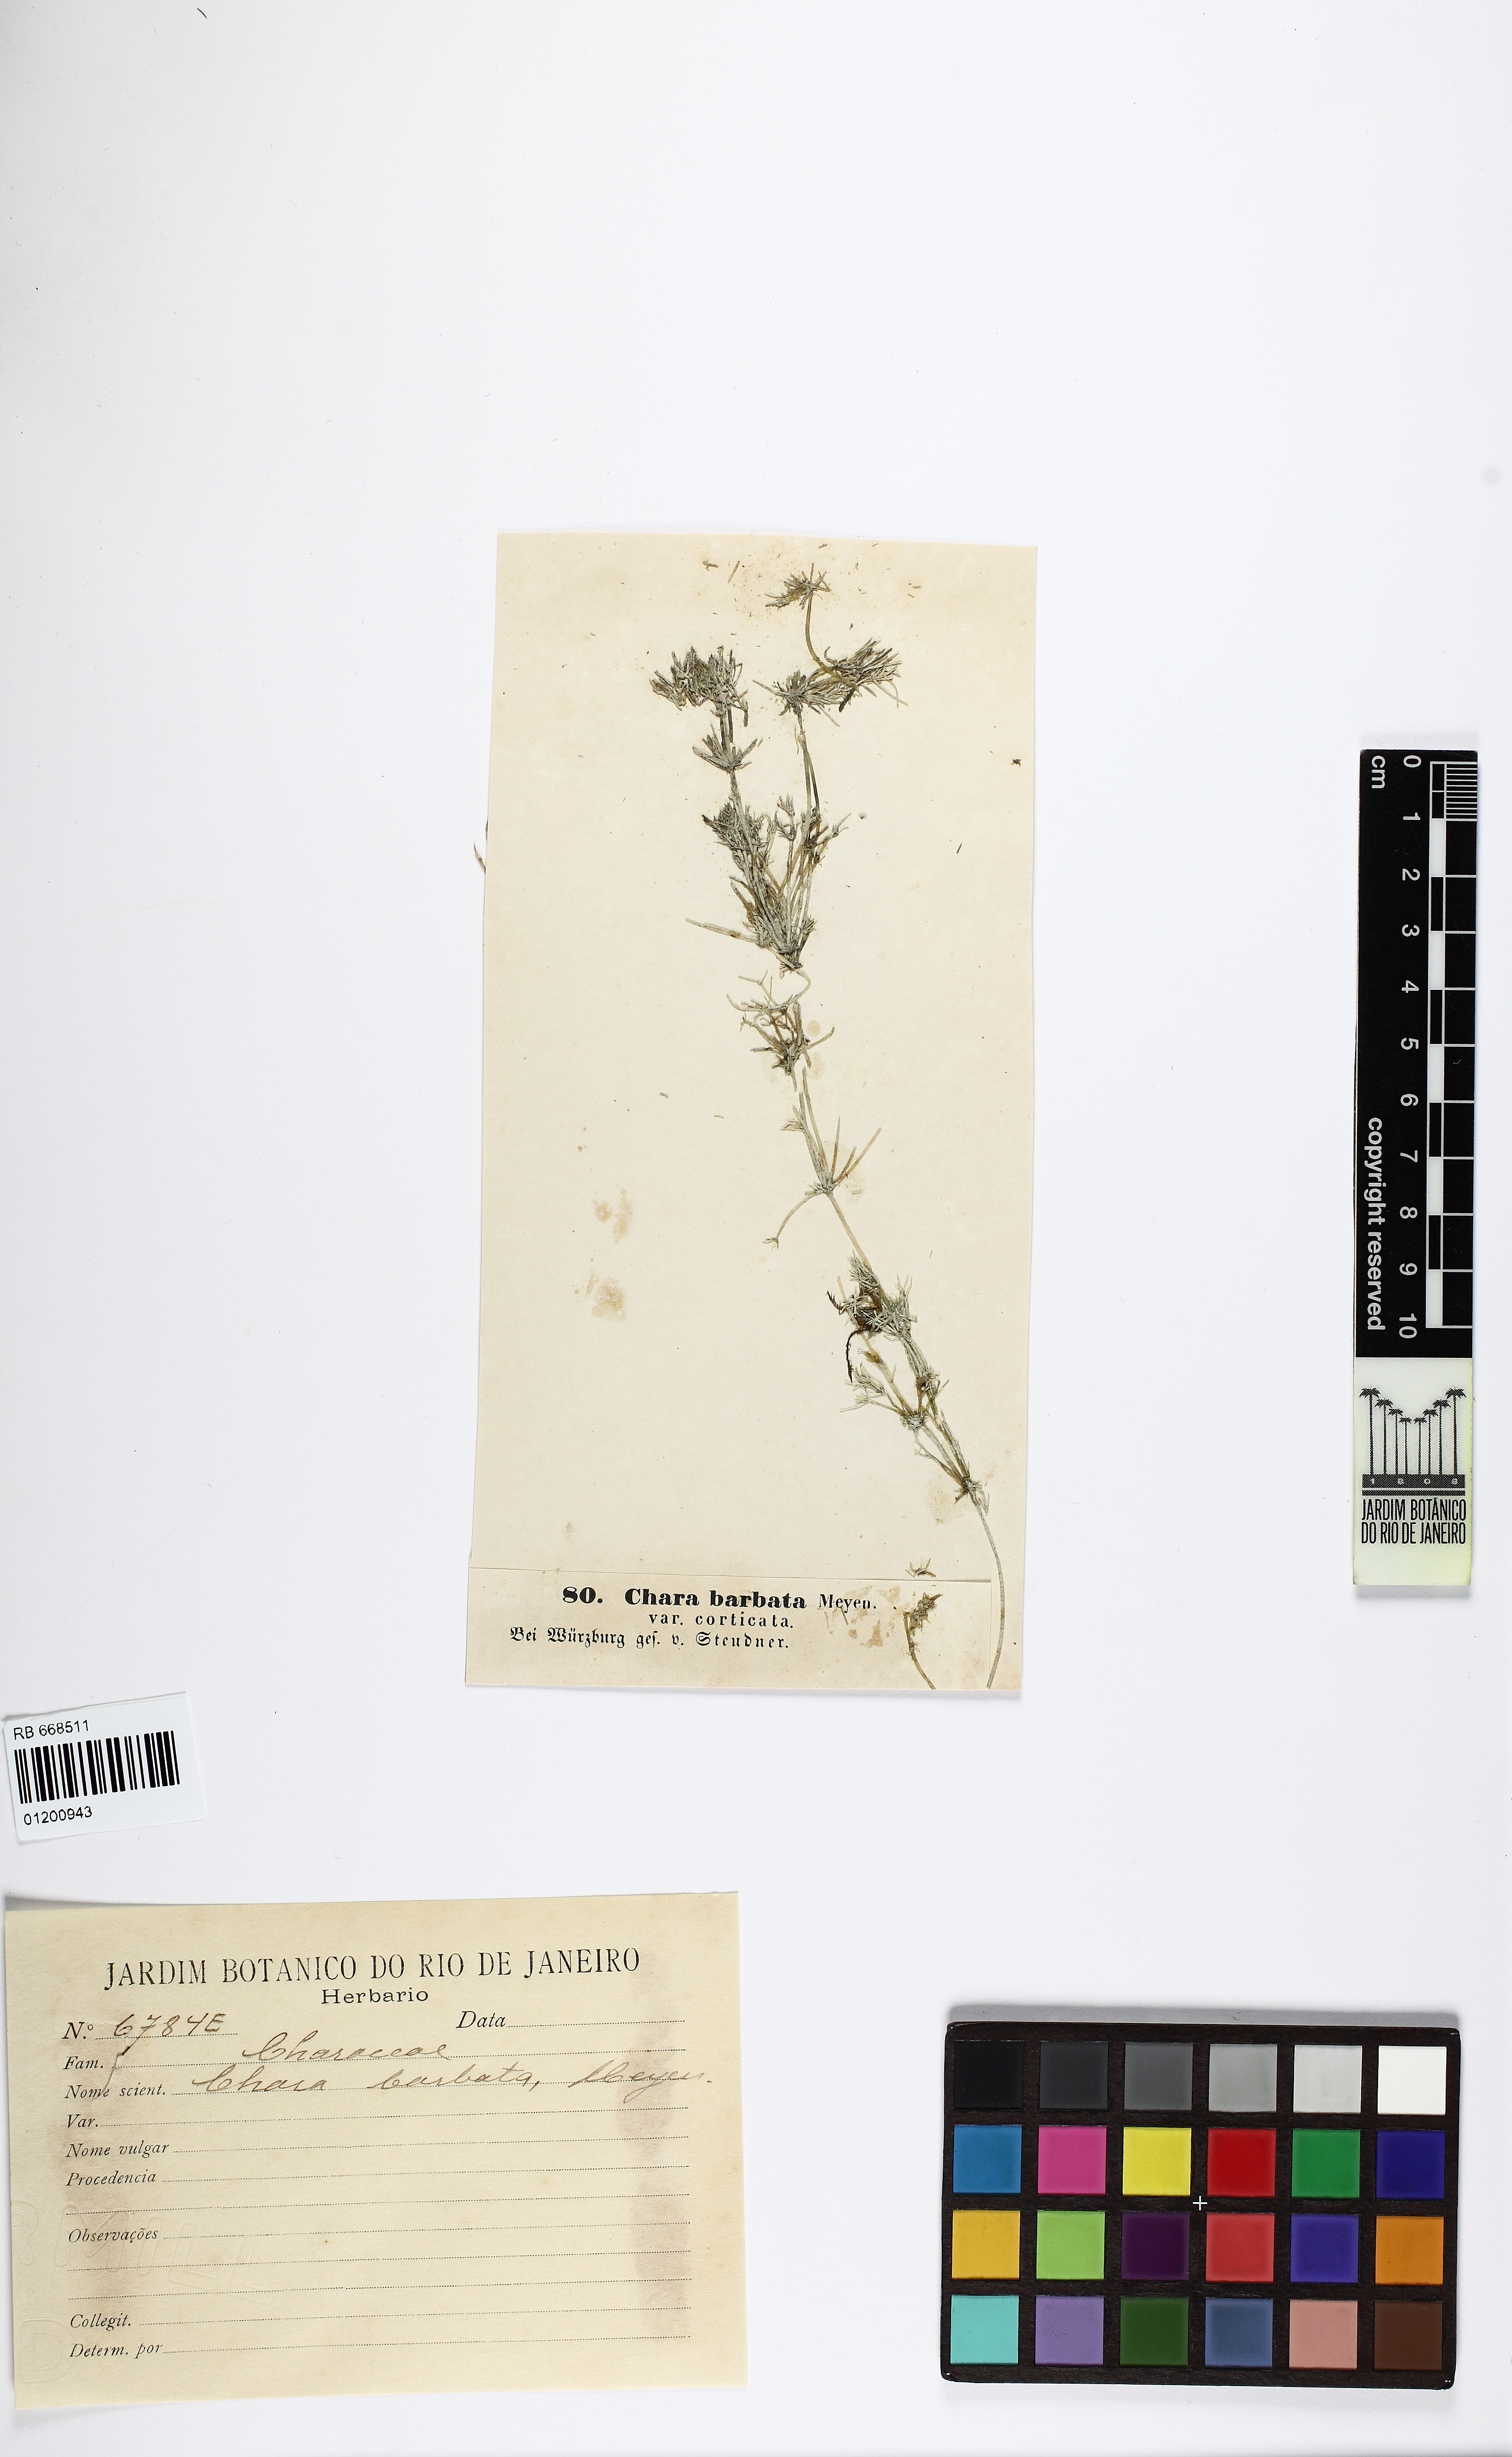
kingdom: Plantae
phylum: Charophyta
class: Charophyceae
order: Charales
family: Characeae
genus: Lychnothamnus
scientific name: Lychnothamnus barbatus
